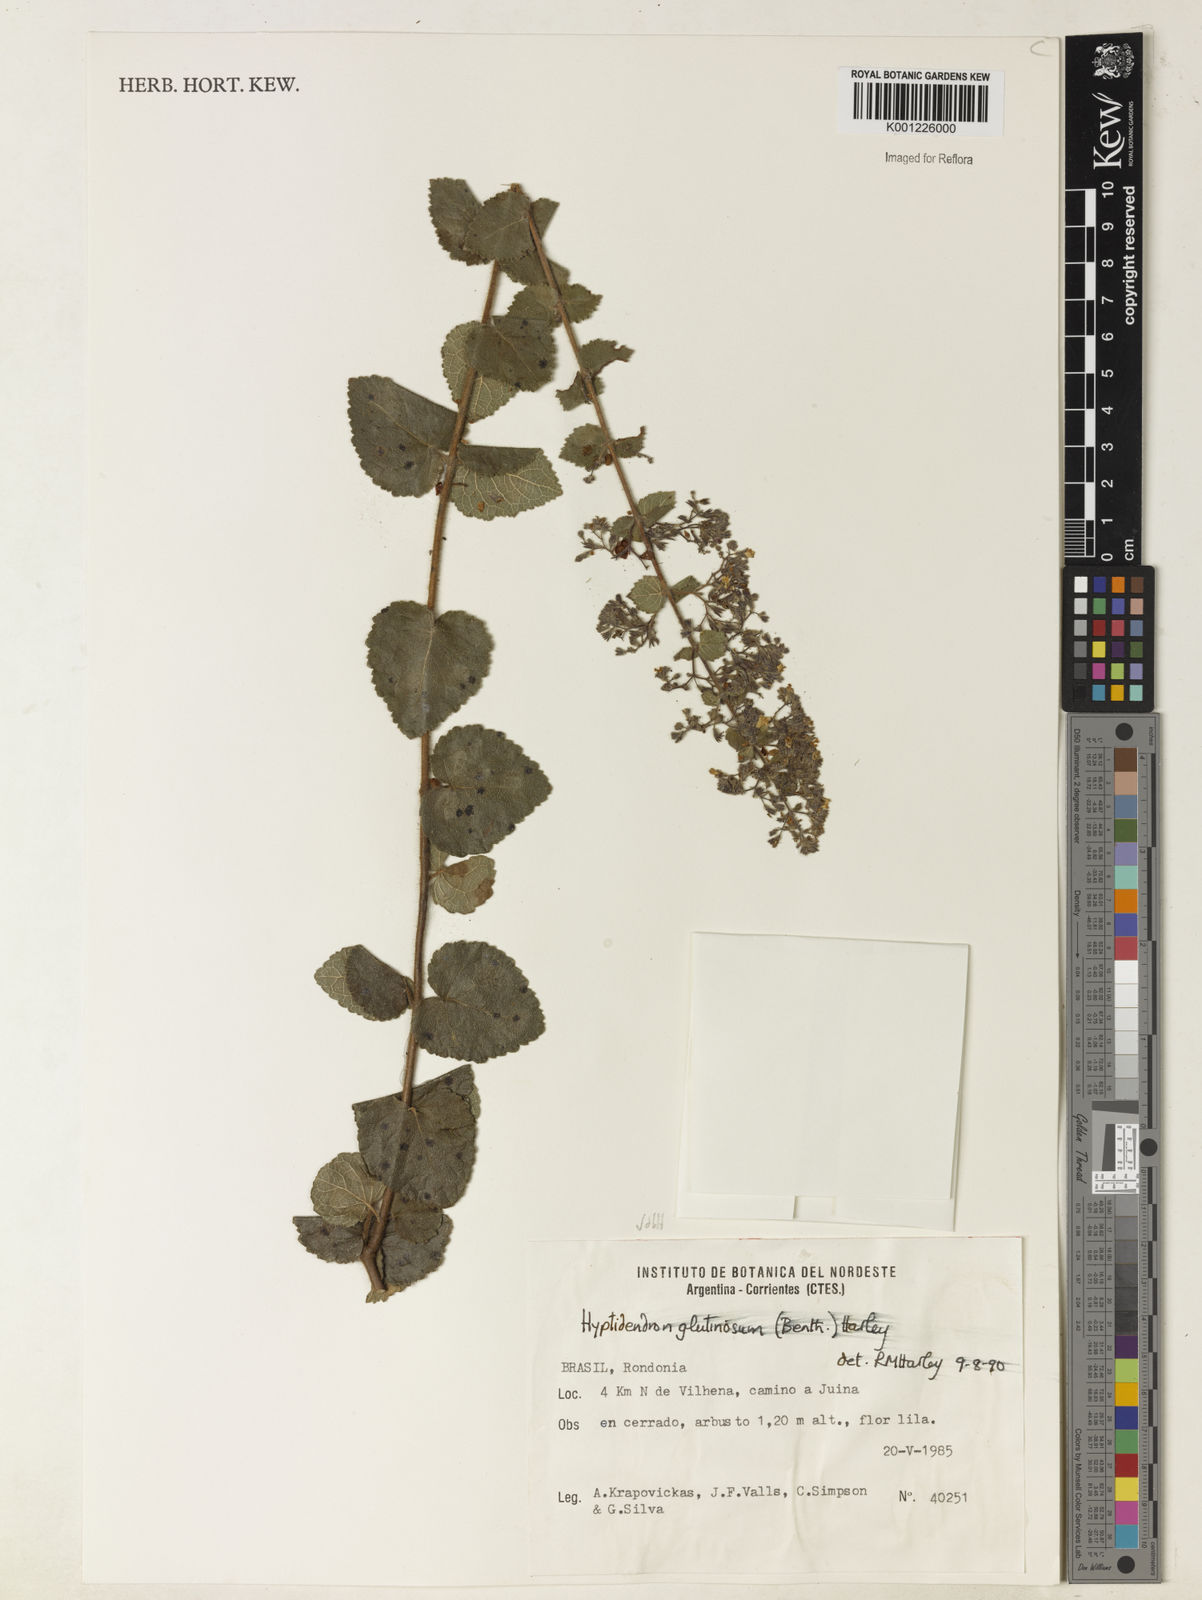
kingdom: Plantae
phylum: Tracheophyta
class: Magnoliopsida
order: Lamiales
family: Lamiaceae
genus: Hyptidendron
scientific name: Hyptidendron glutinosum
